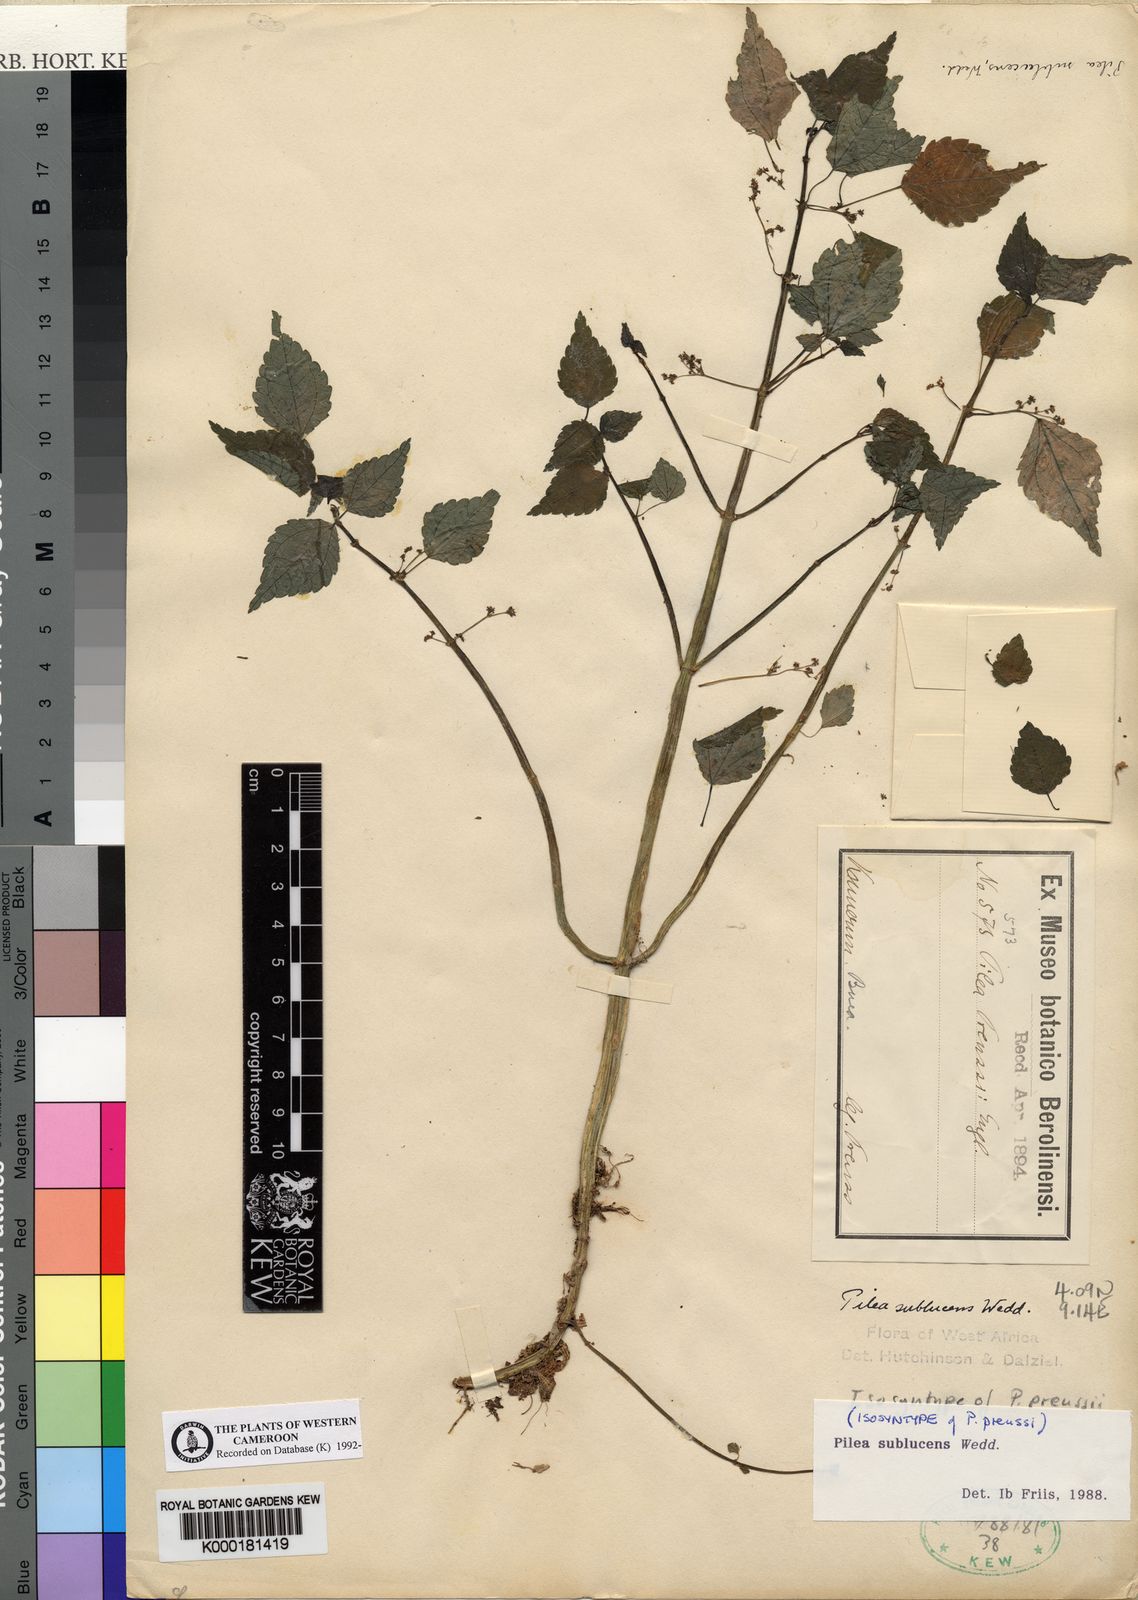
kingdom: Plantae
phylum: Tracheophyta
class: Magnoliopsida
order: Rosales
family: Urticaceae
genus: Pilea
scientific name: Pilea sublucens
